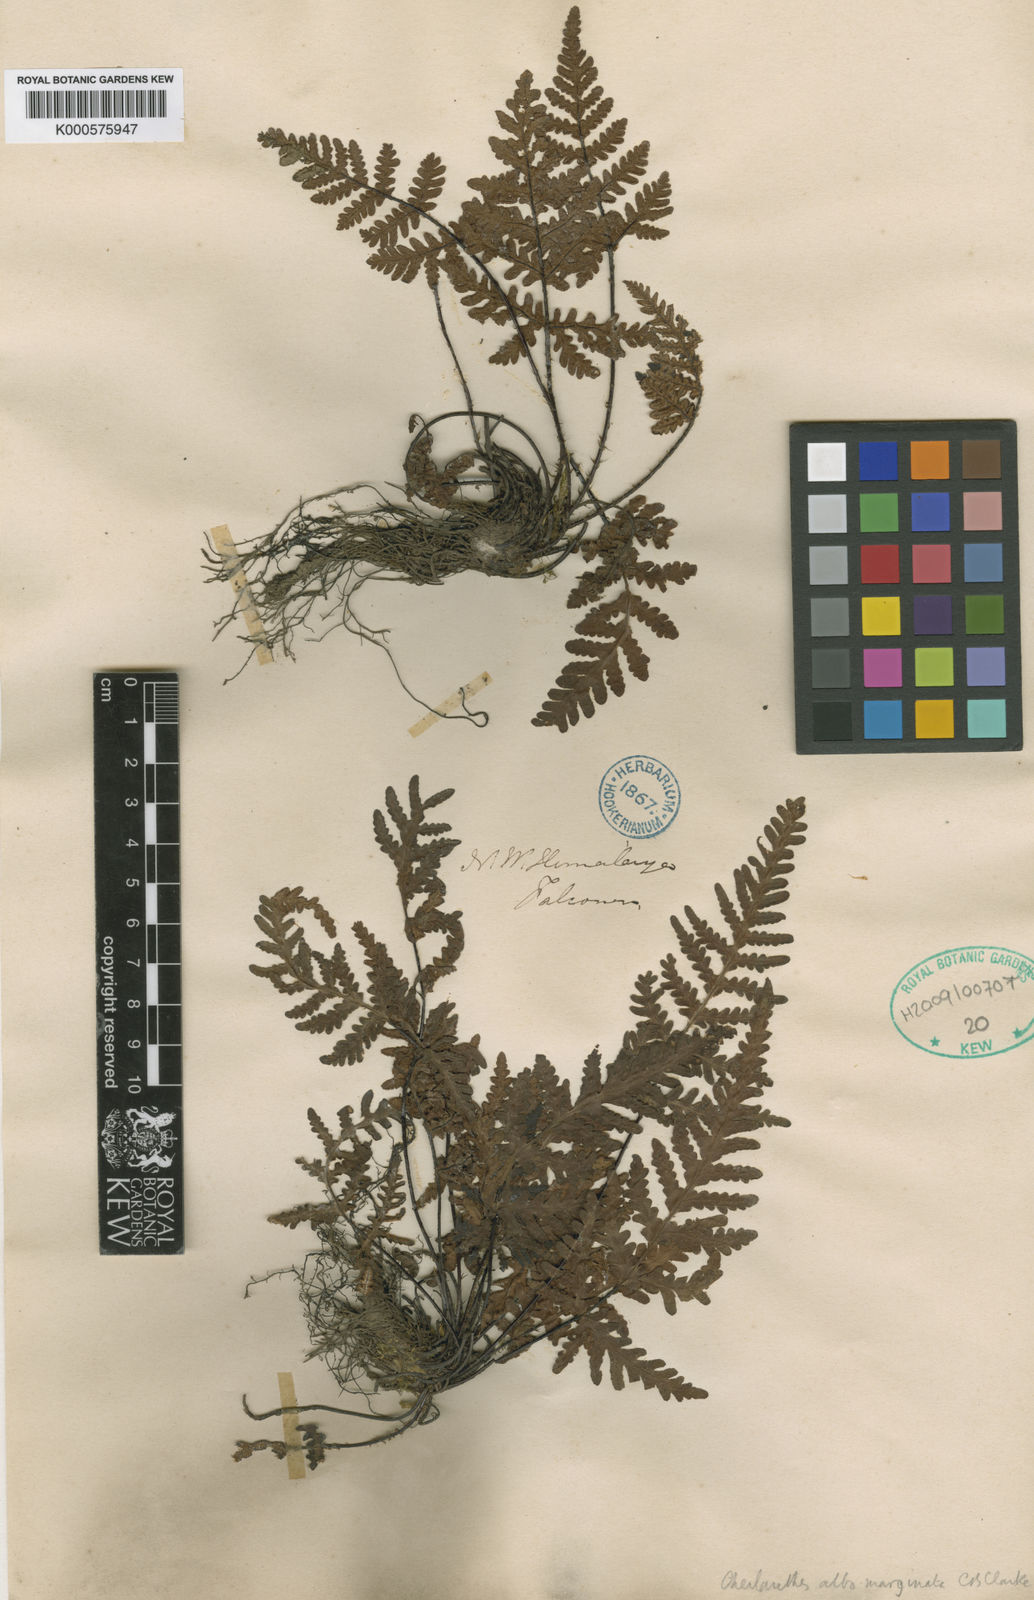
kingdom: Plantae
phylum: Tracheophyta
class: Polypodiopsida
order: Polypodiales
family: Pteridaceae
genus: Aleuritopteris
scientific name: Aleuritopteris albomarginata
